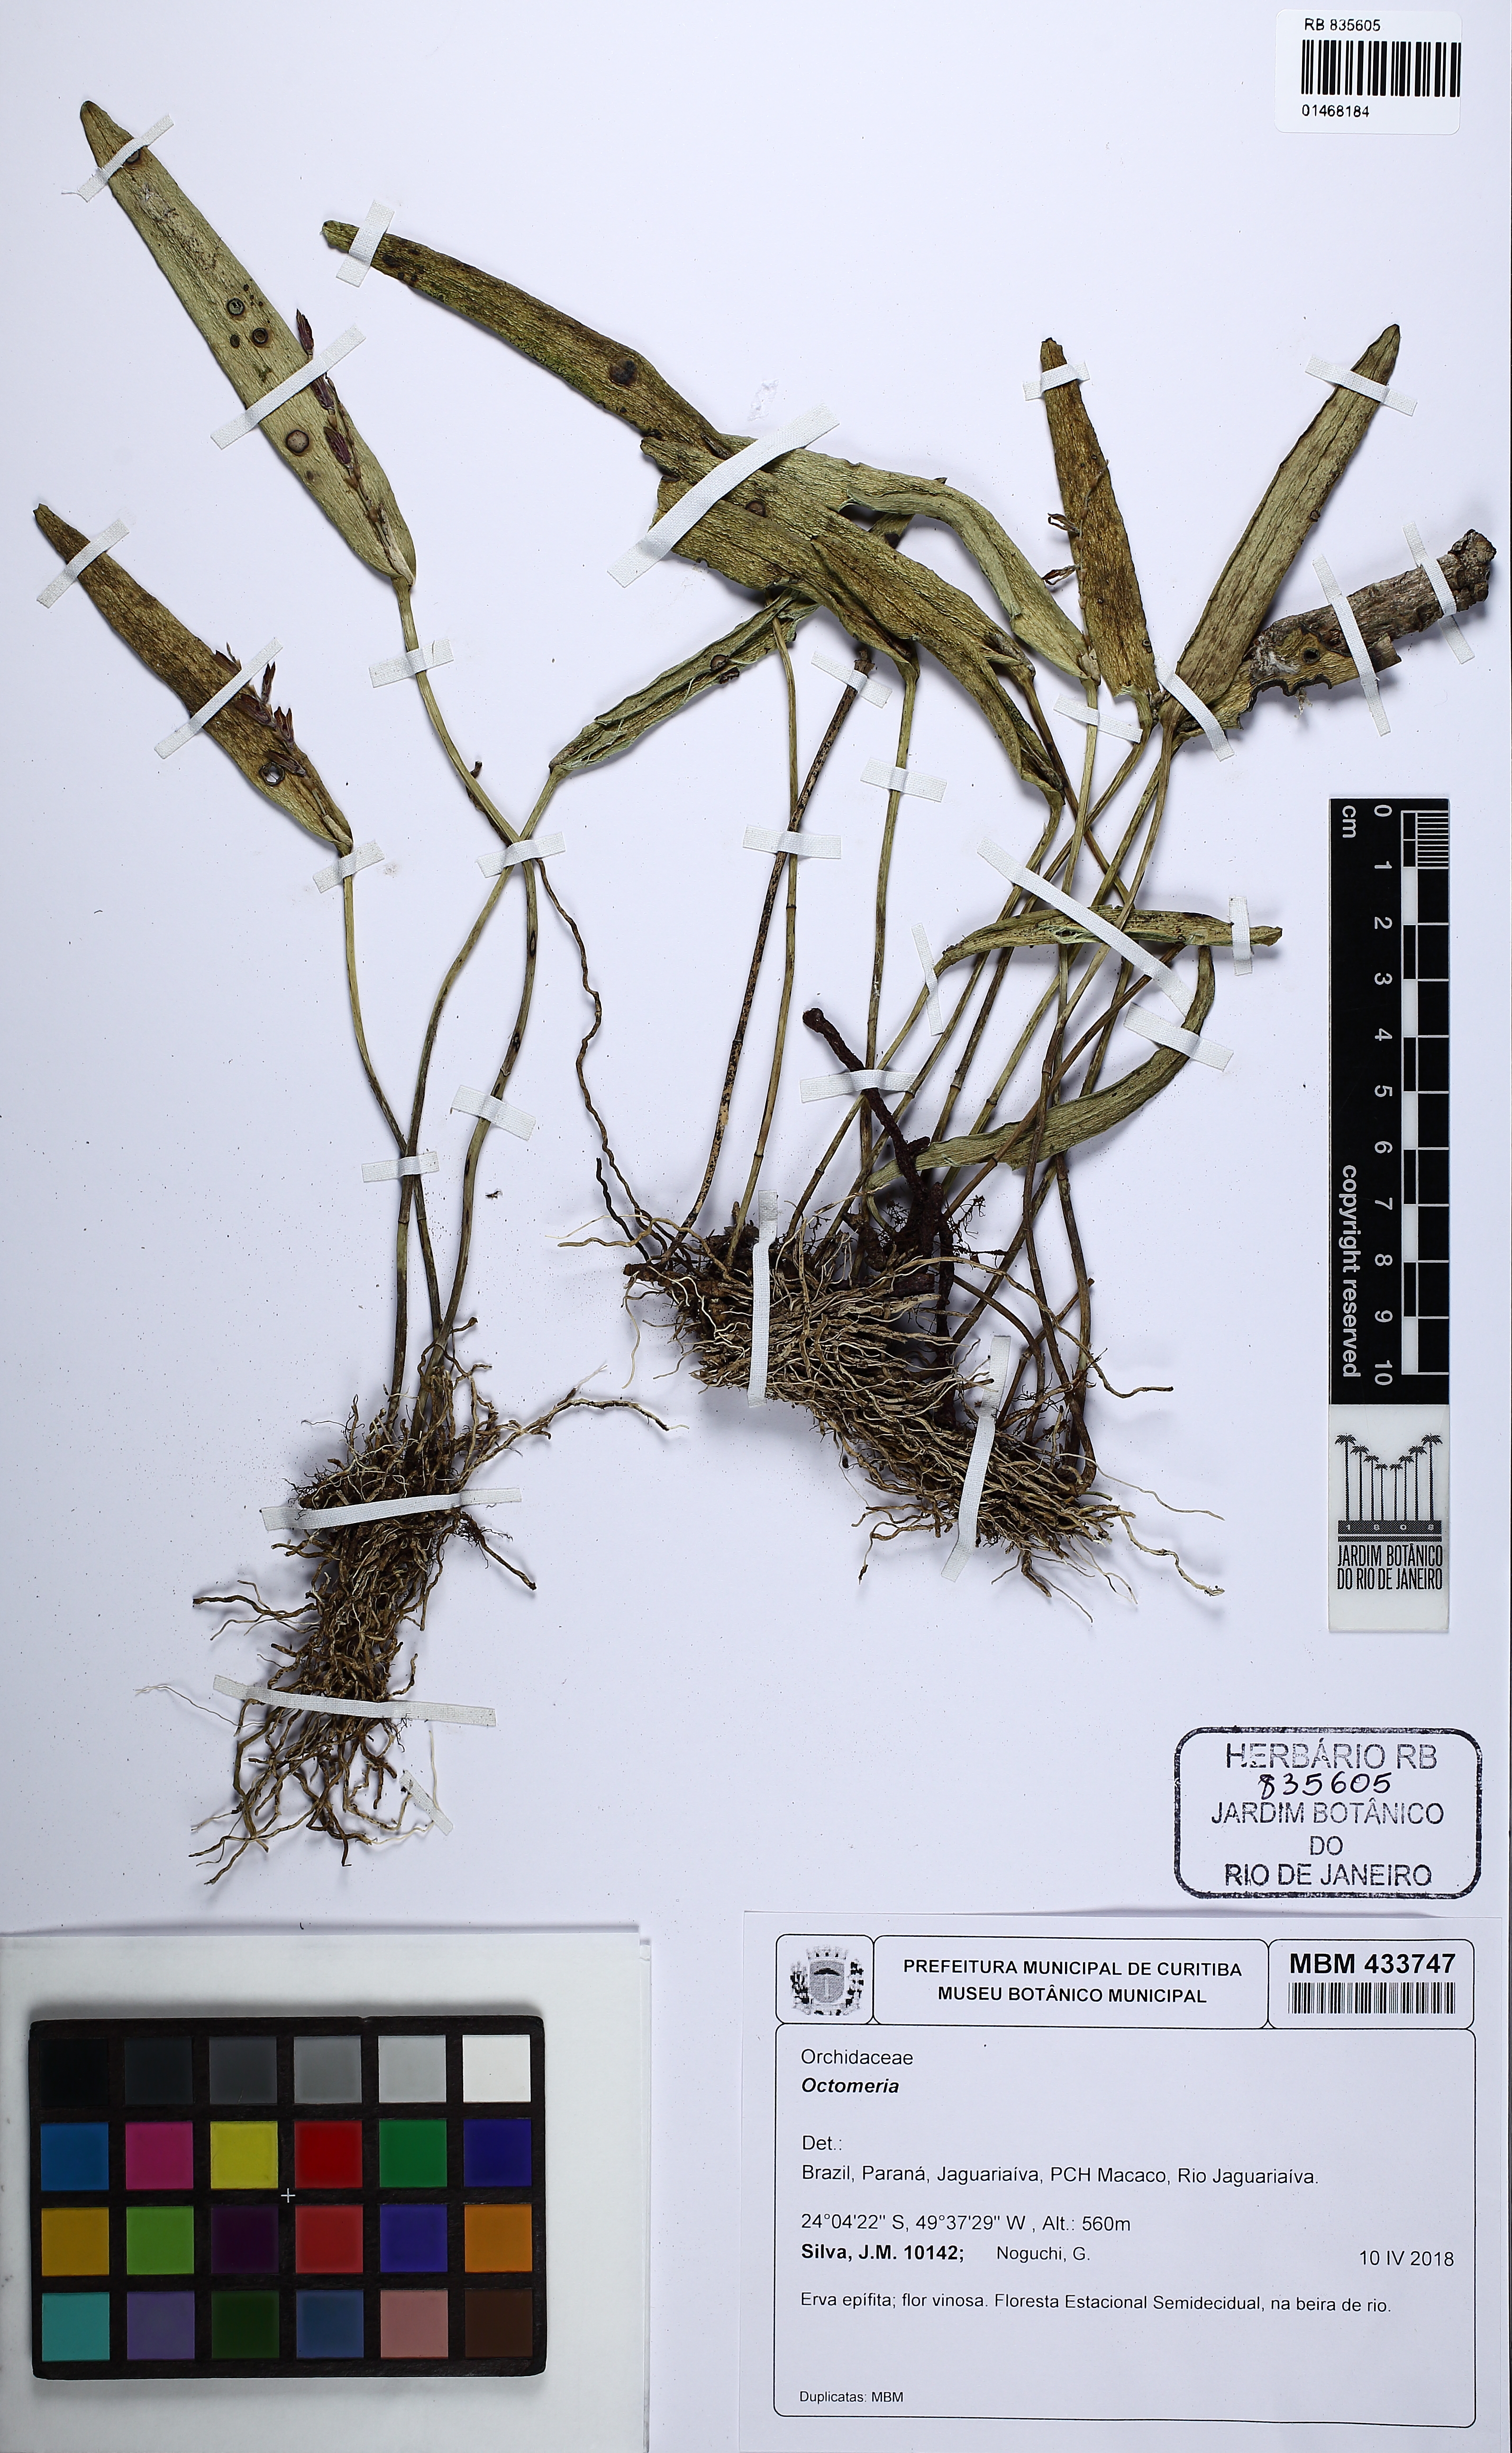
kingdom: Plantae
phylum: Tracheophyta
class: Liliopsida
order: Asparagales
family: Orchidaceae
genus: Octomeria
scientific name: Octomeria
